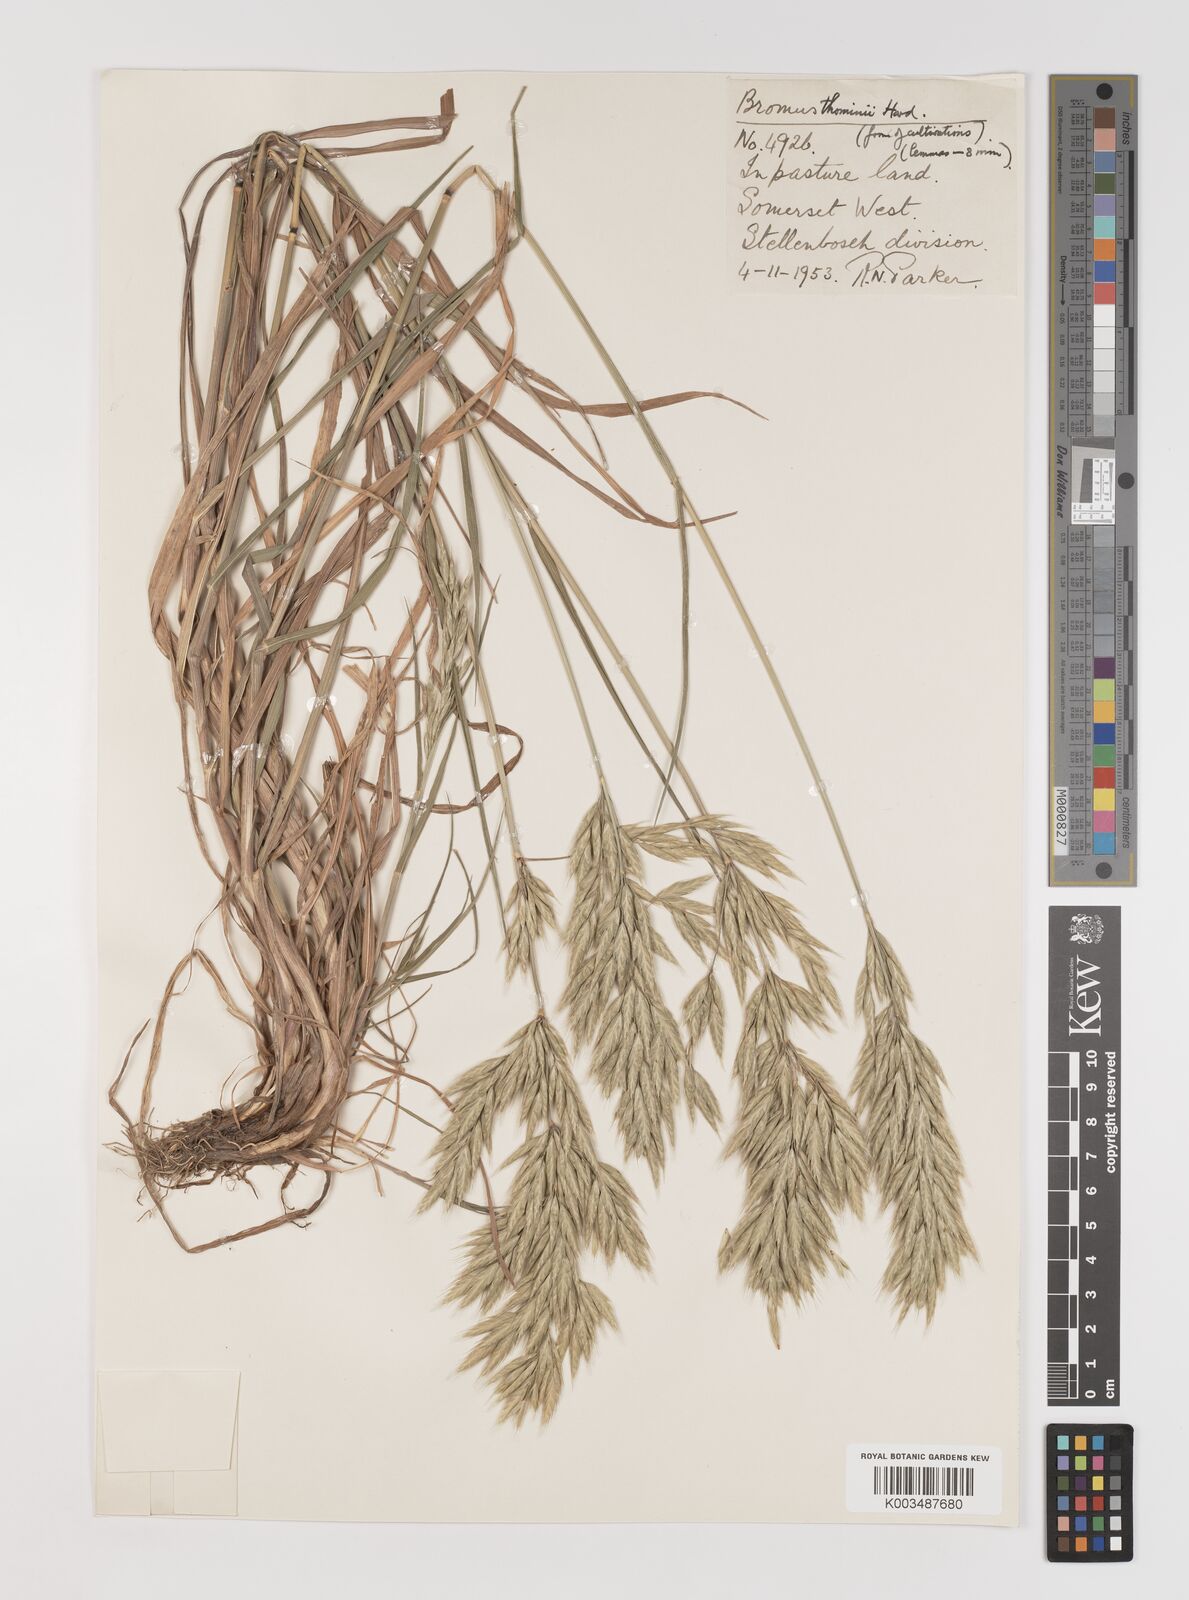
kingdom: Plantae
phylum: Tracheophyta
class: Liliopsida
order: Poales
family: Poaceae
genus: Bromus
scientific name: Bromus hordeaceus
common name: Soft brome
